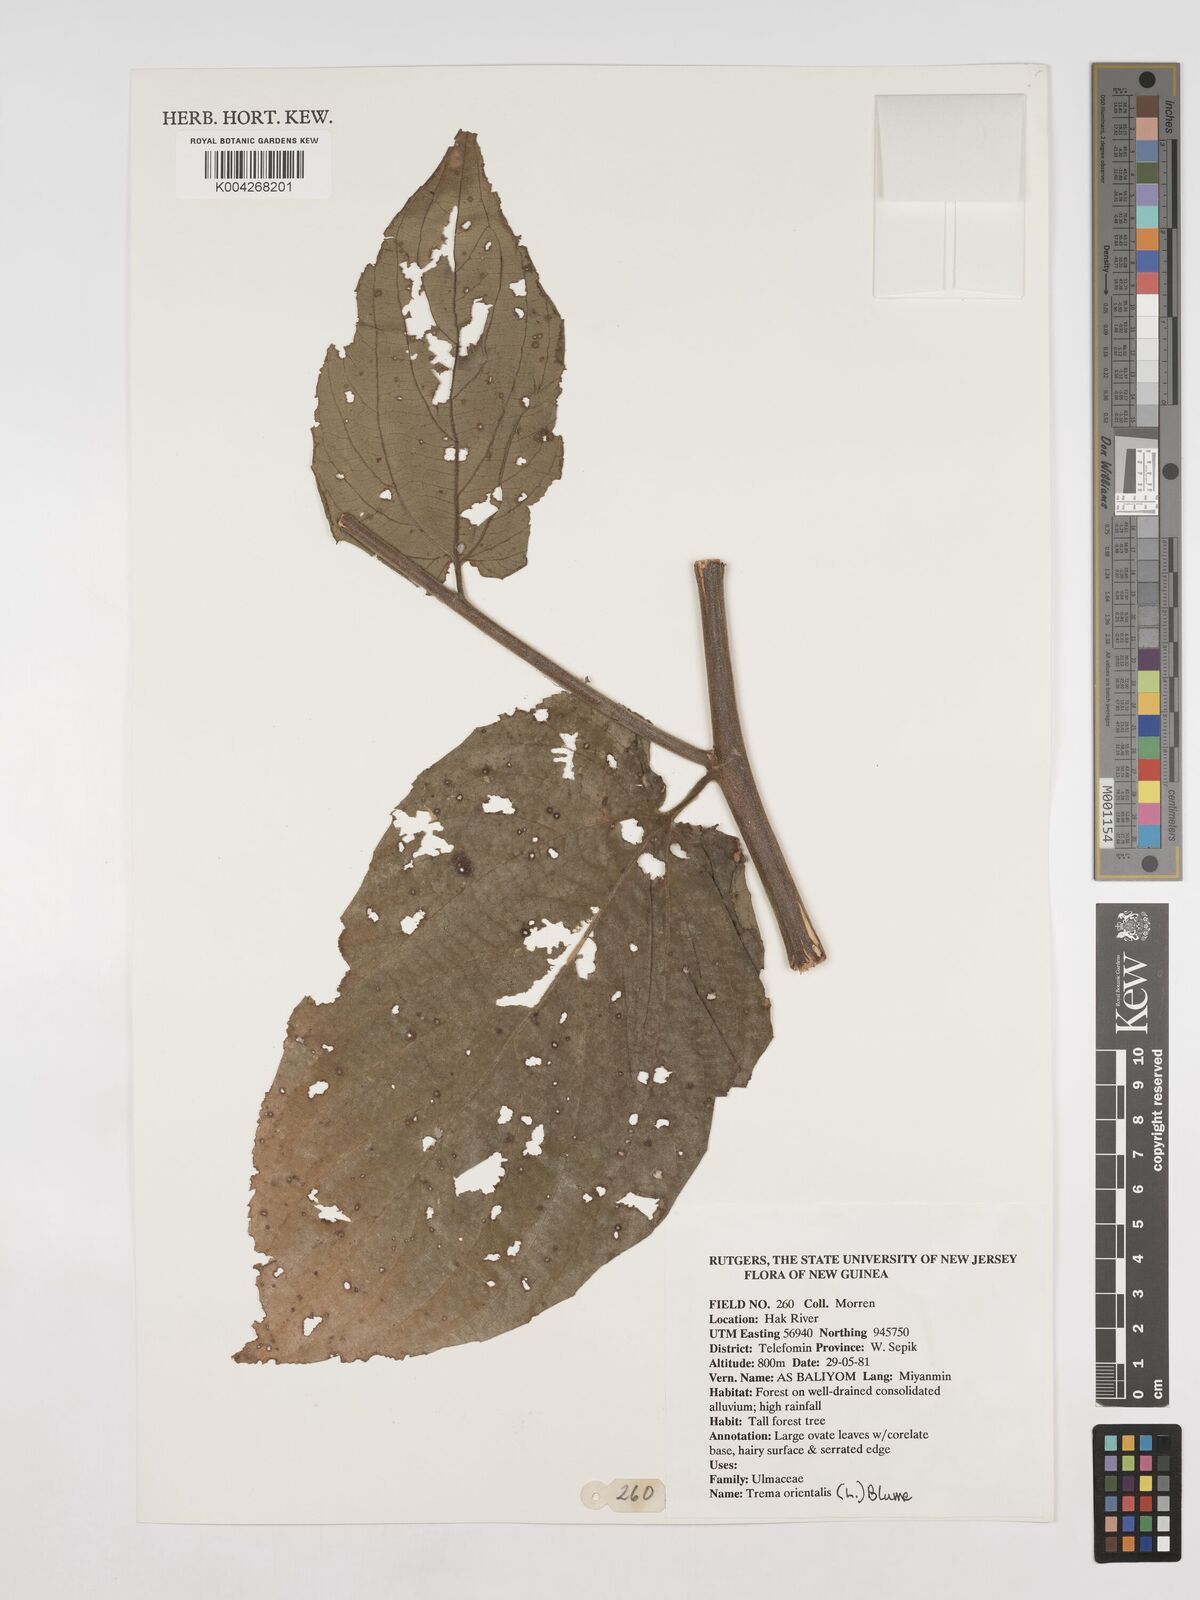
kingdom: Plantae
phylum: Tracheophyta
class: Magnoliopsida
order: Rosales
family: Cannabaceae
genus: Trema
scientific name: Trema orientale
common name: Indian charcoal tree
